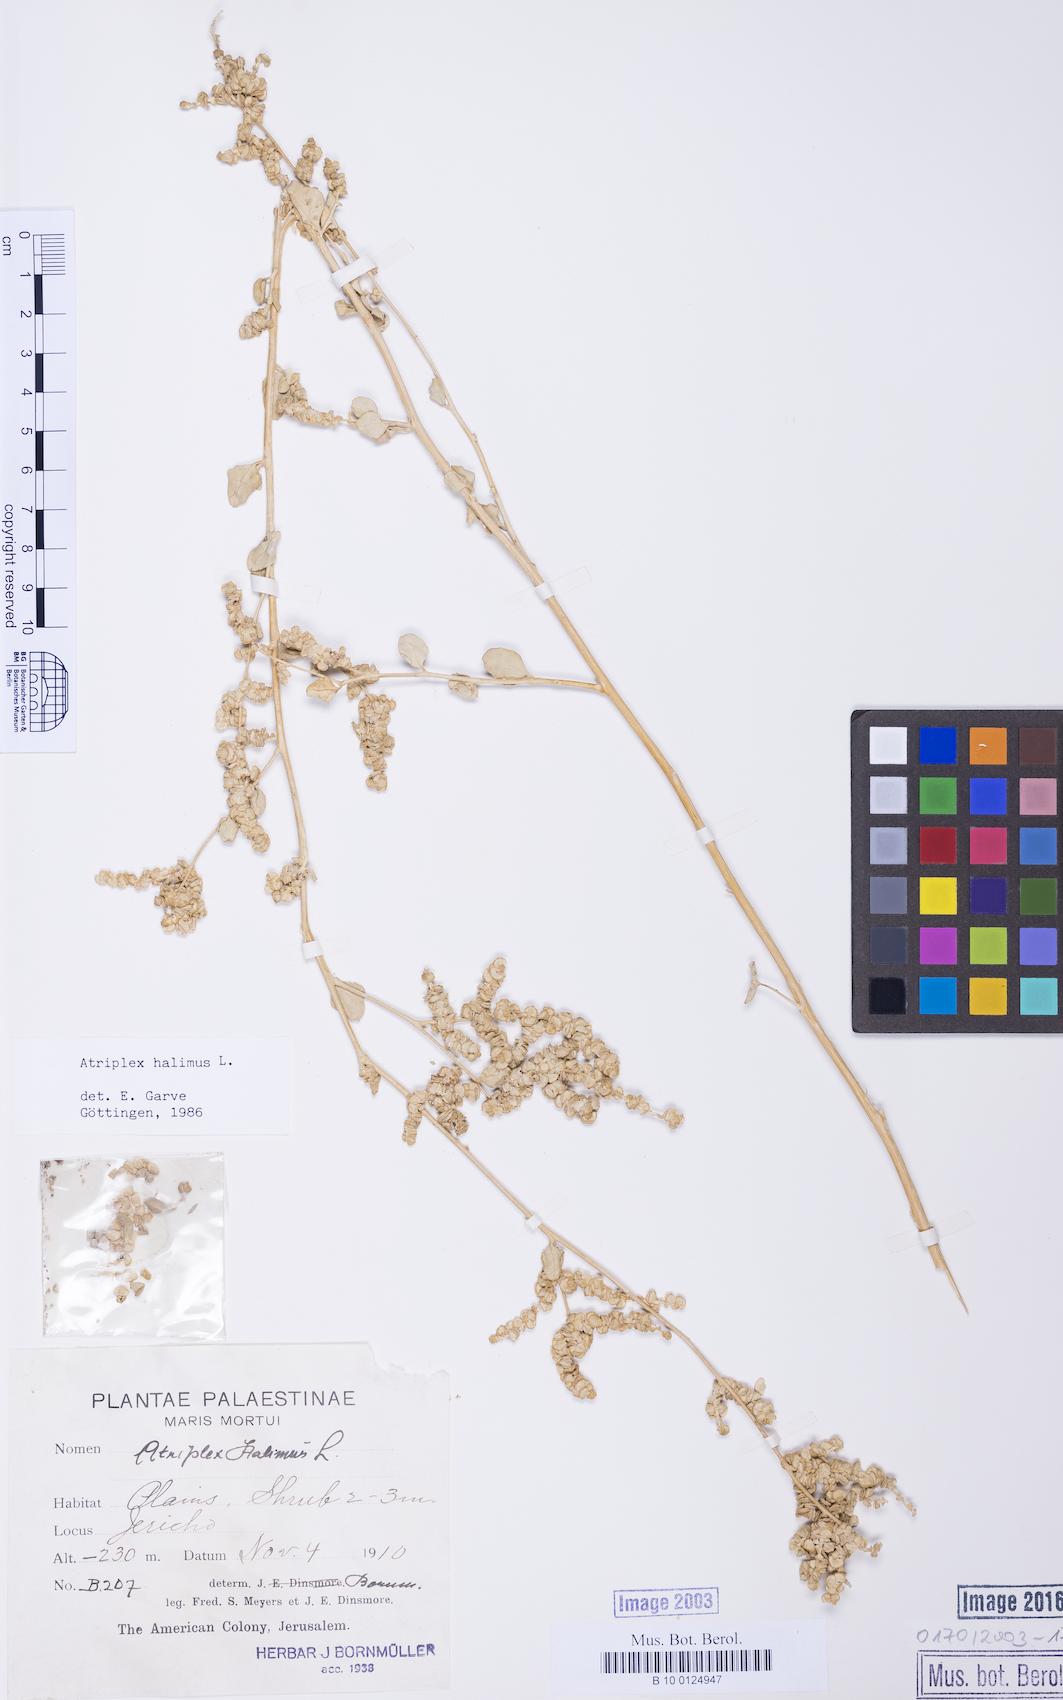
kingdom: Plantae
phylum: Tracheophyta
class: Magnoliopsida
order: Caryophyllales
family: Amaranthaceae
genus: Atriplex
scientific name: Atriplex halimus
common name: Shrubby orache
